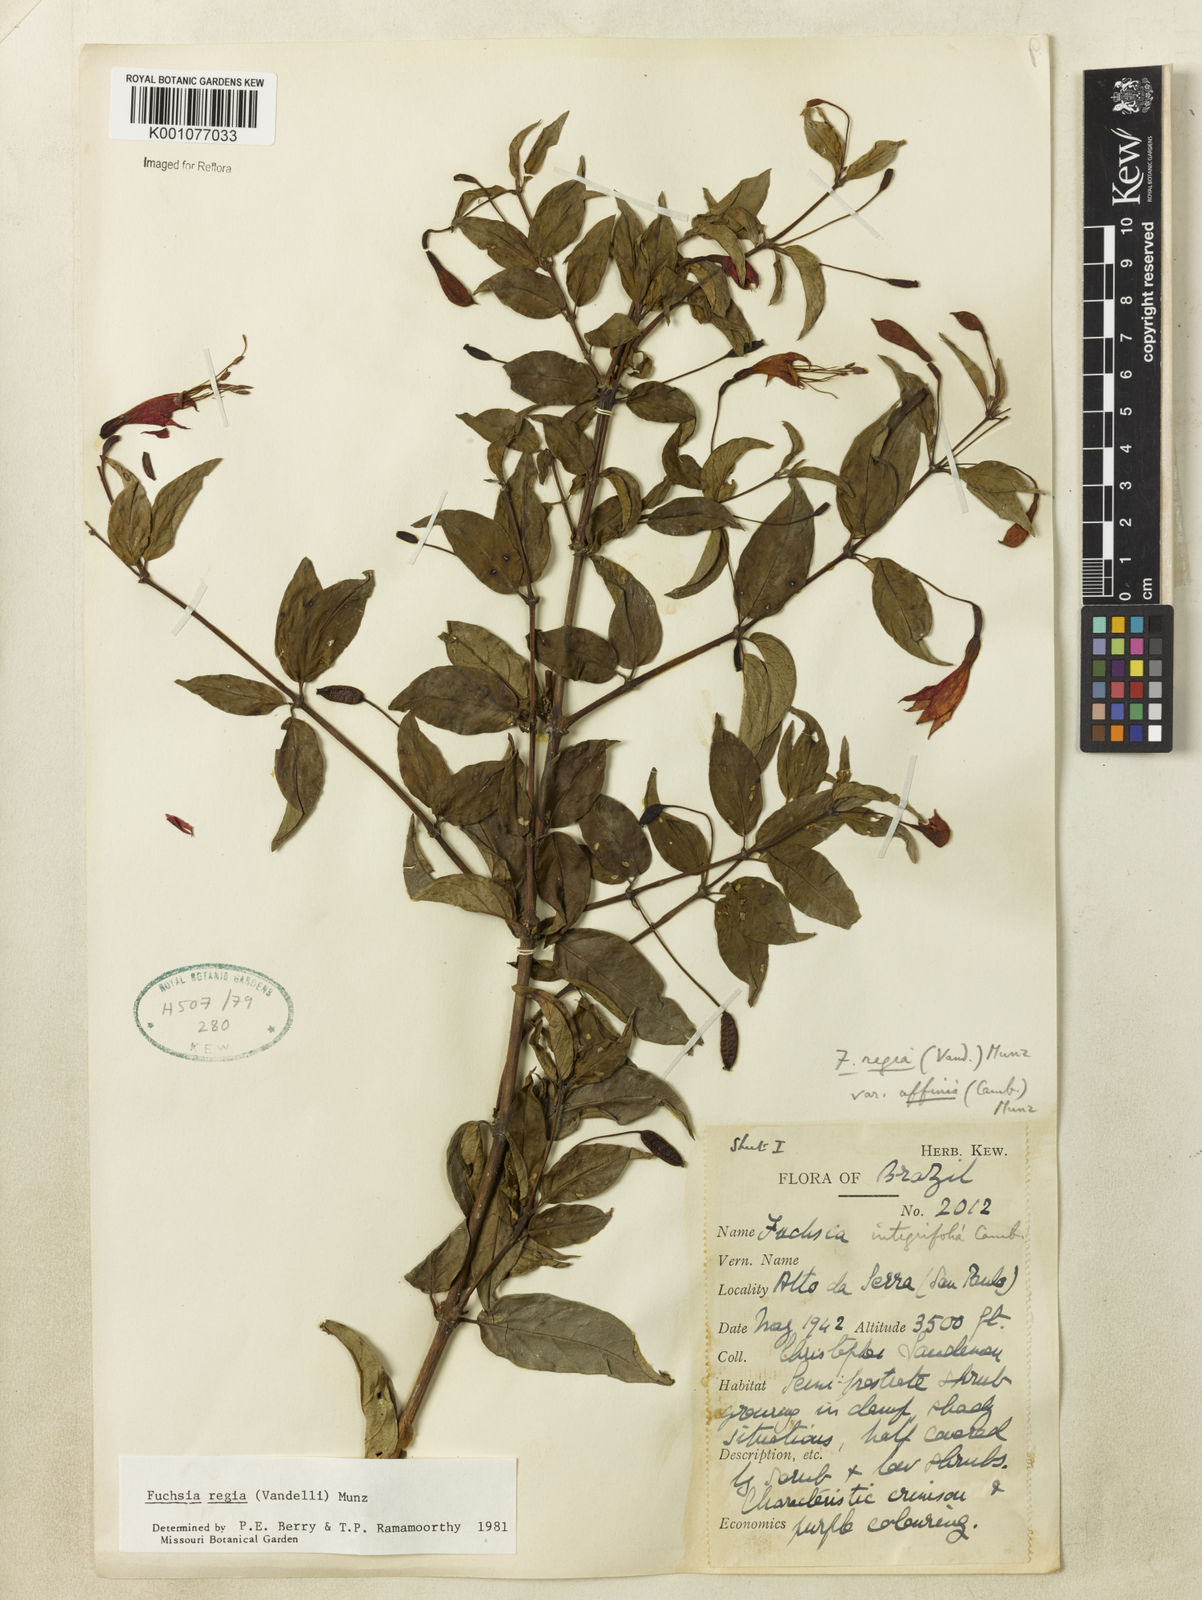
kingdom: Plantae
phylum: Tracheophyta
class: Magnoliopsida
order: Myrtales
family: Onagraceae
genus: Fuchsia
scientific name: Fuchsia regia
